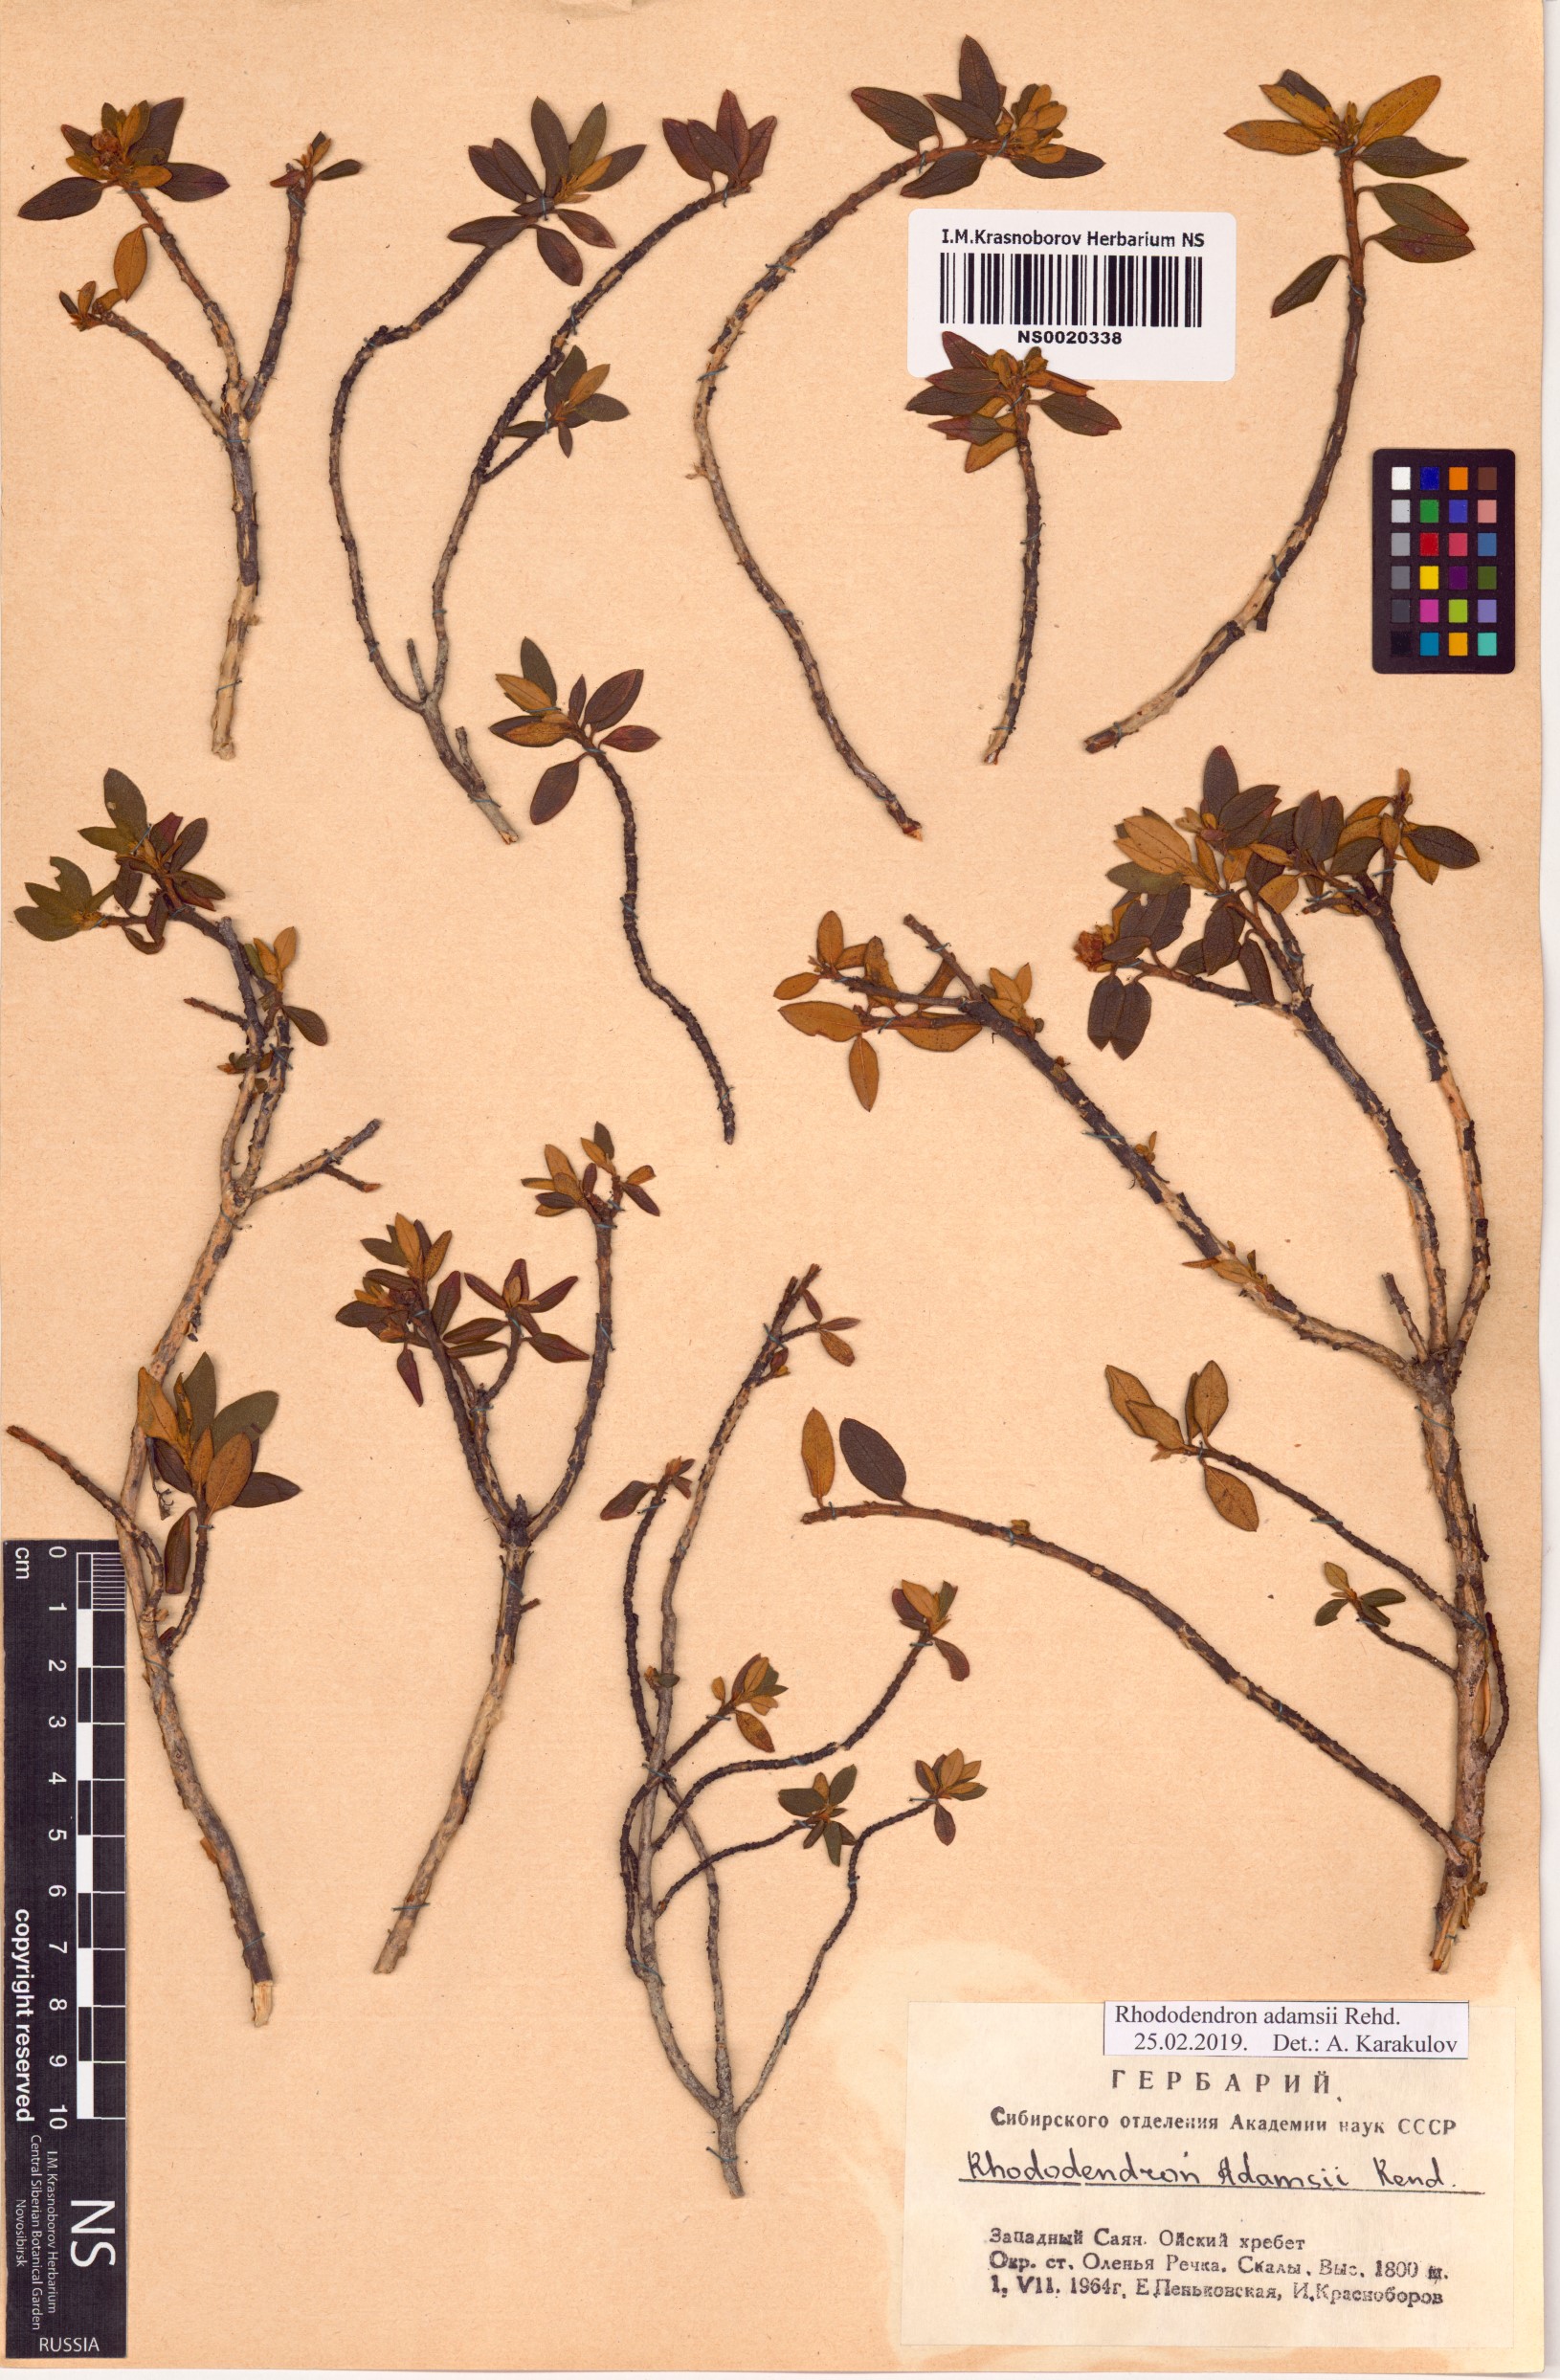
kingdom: Plantae
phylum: Tracheophyta
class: Magnoliopsida
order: Ericales
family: Ericaceae
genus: Rhododendron
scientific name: Rhododendron adamsii
